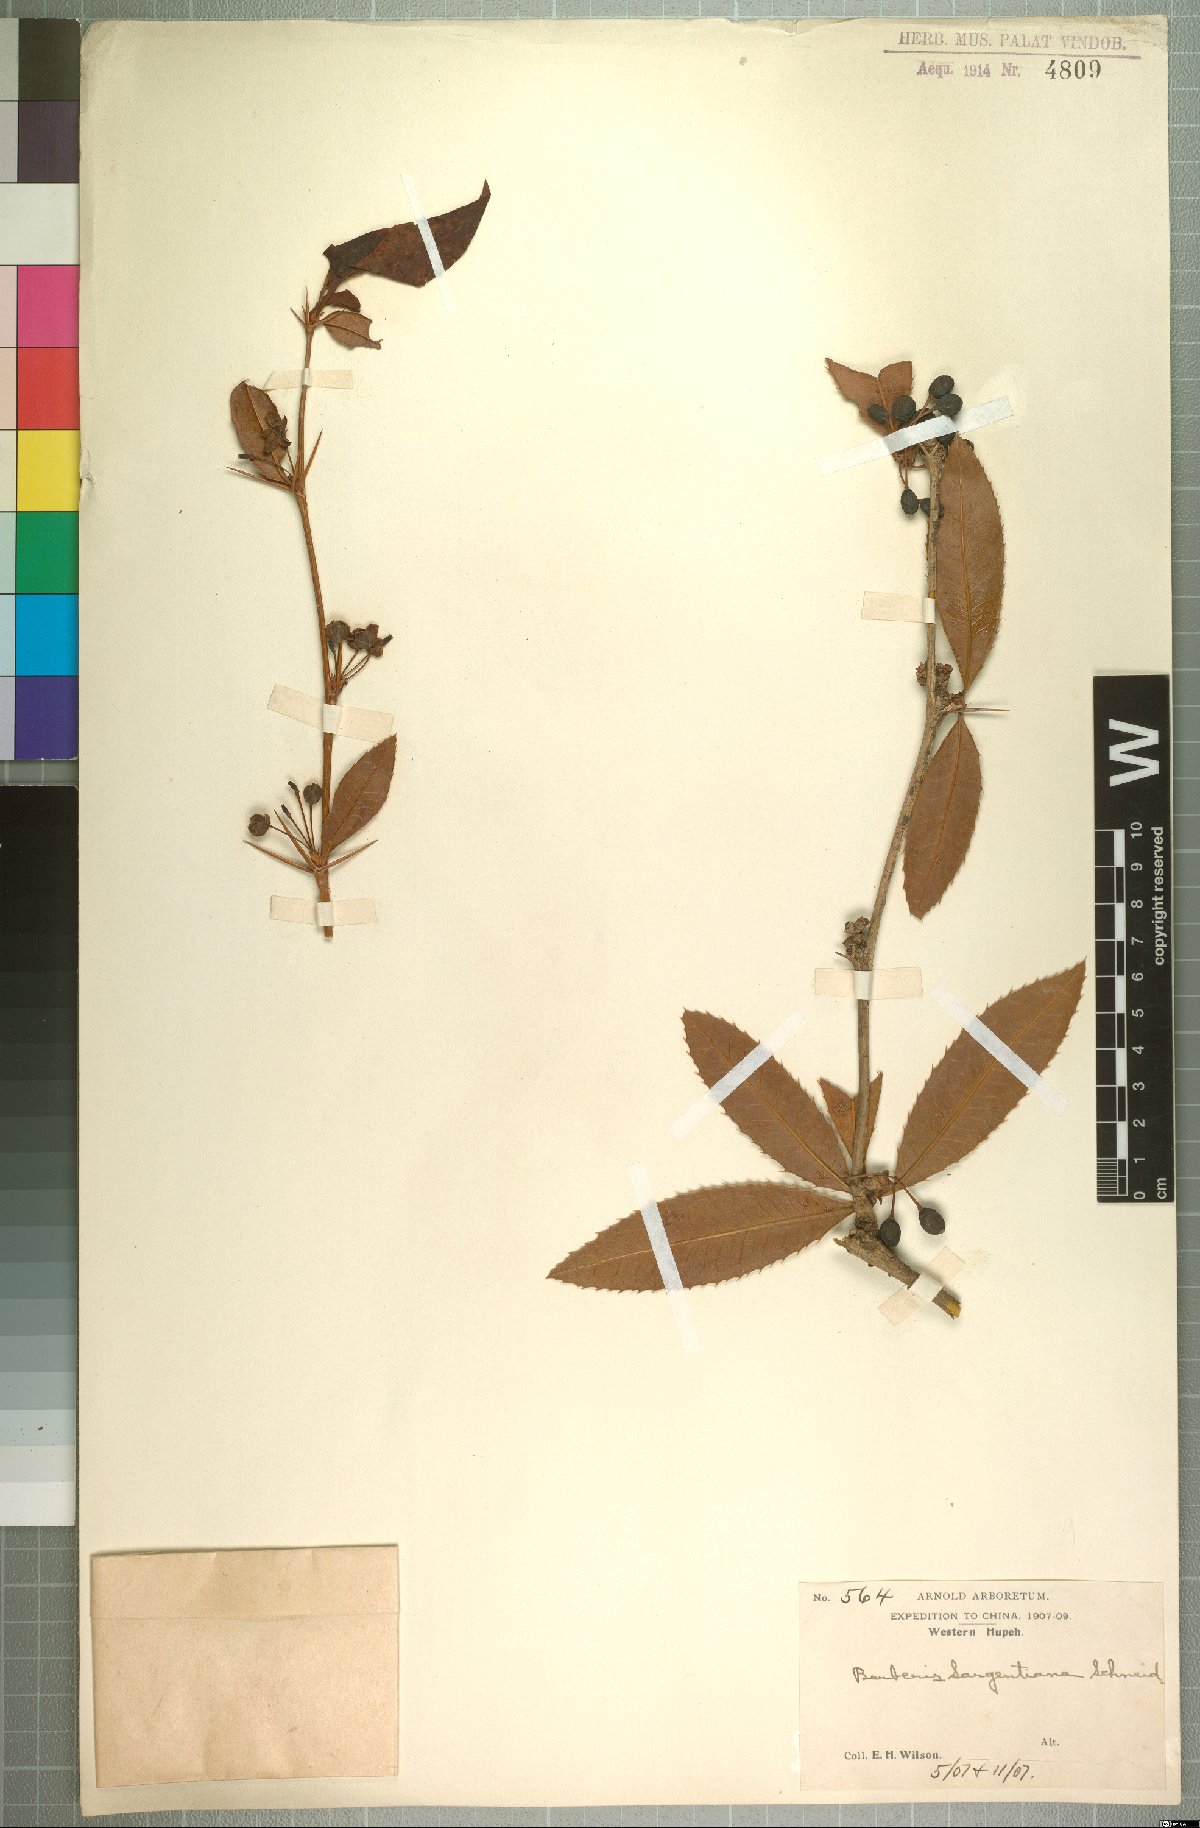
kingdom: Plantae
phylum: Tracheophyta
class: Magnoliopsida
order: Ranunculales
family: Berberidaceae
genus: Berberis
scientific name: Berberis
